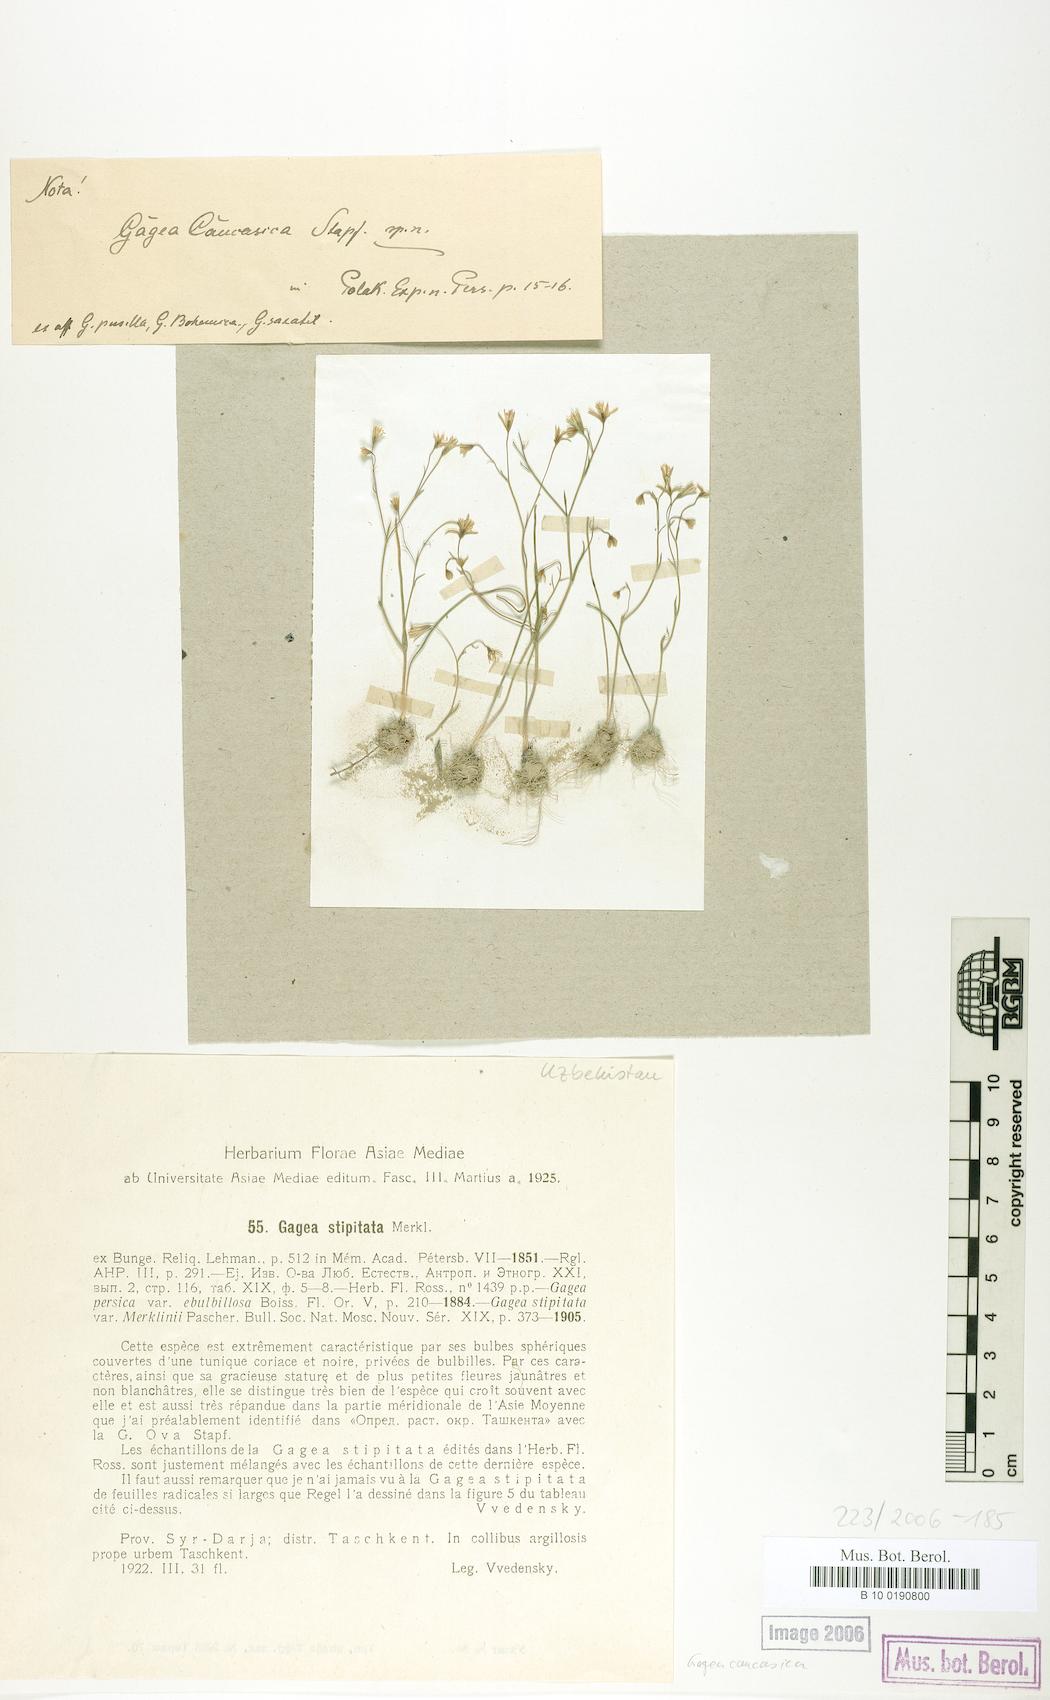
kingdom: Plantae
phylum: Tracheophyta
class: Liliopsida
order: Liliales
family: Liliaceae
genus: Gagea
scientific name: Gagea chlorantha
